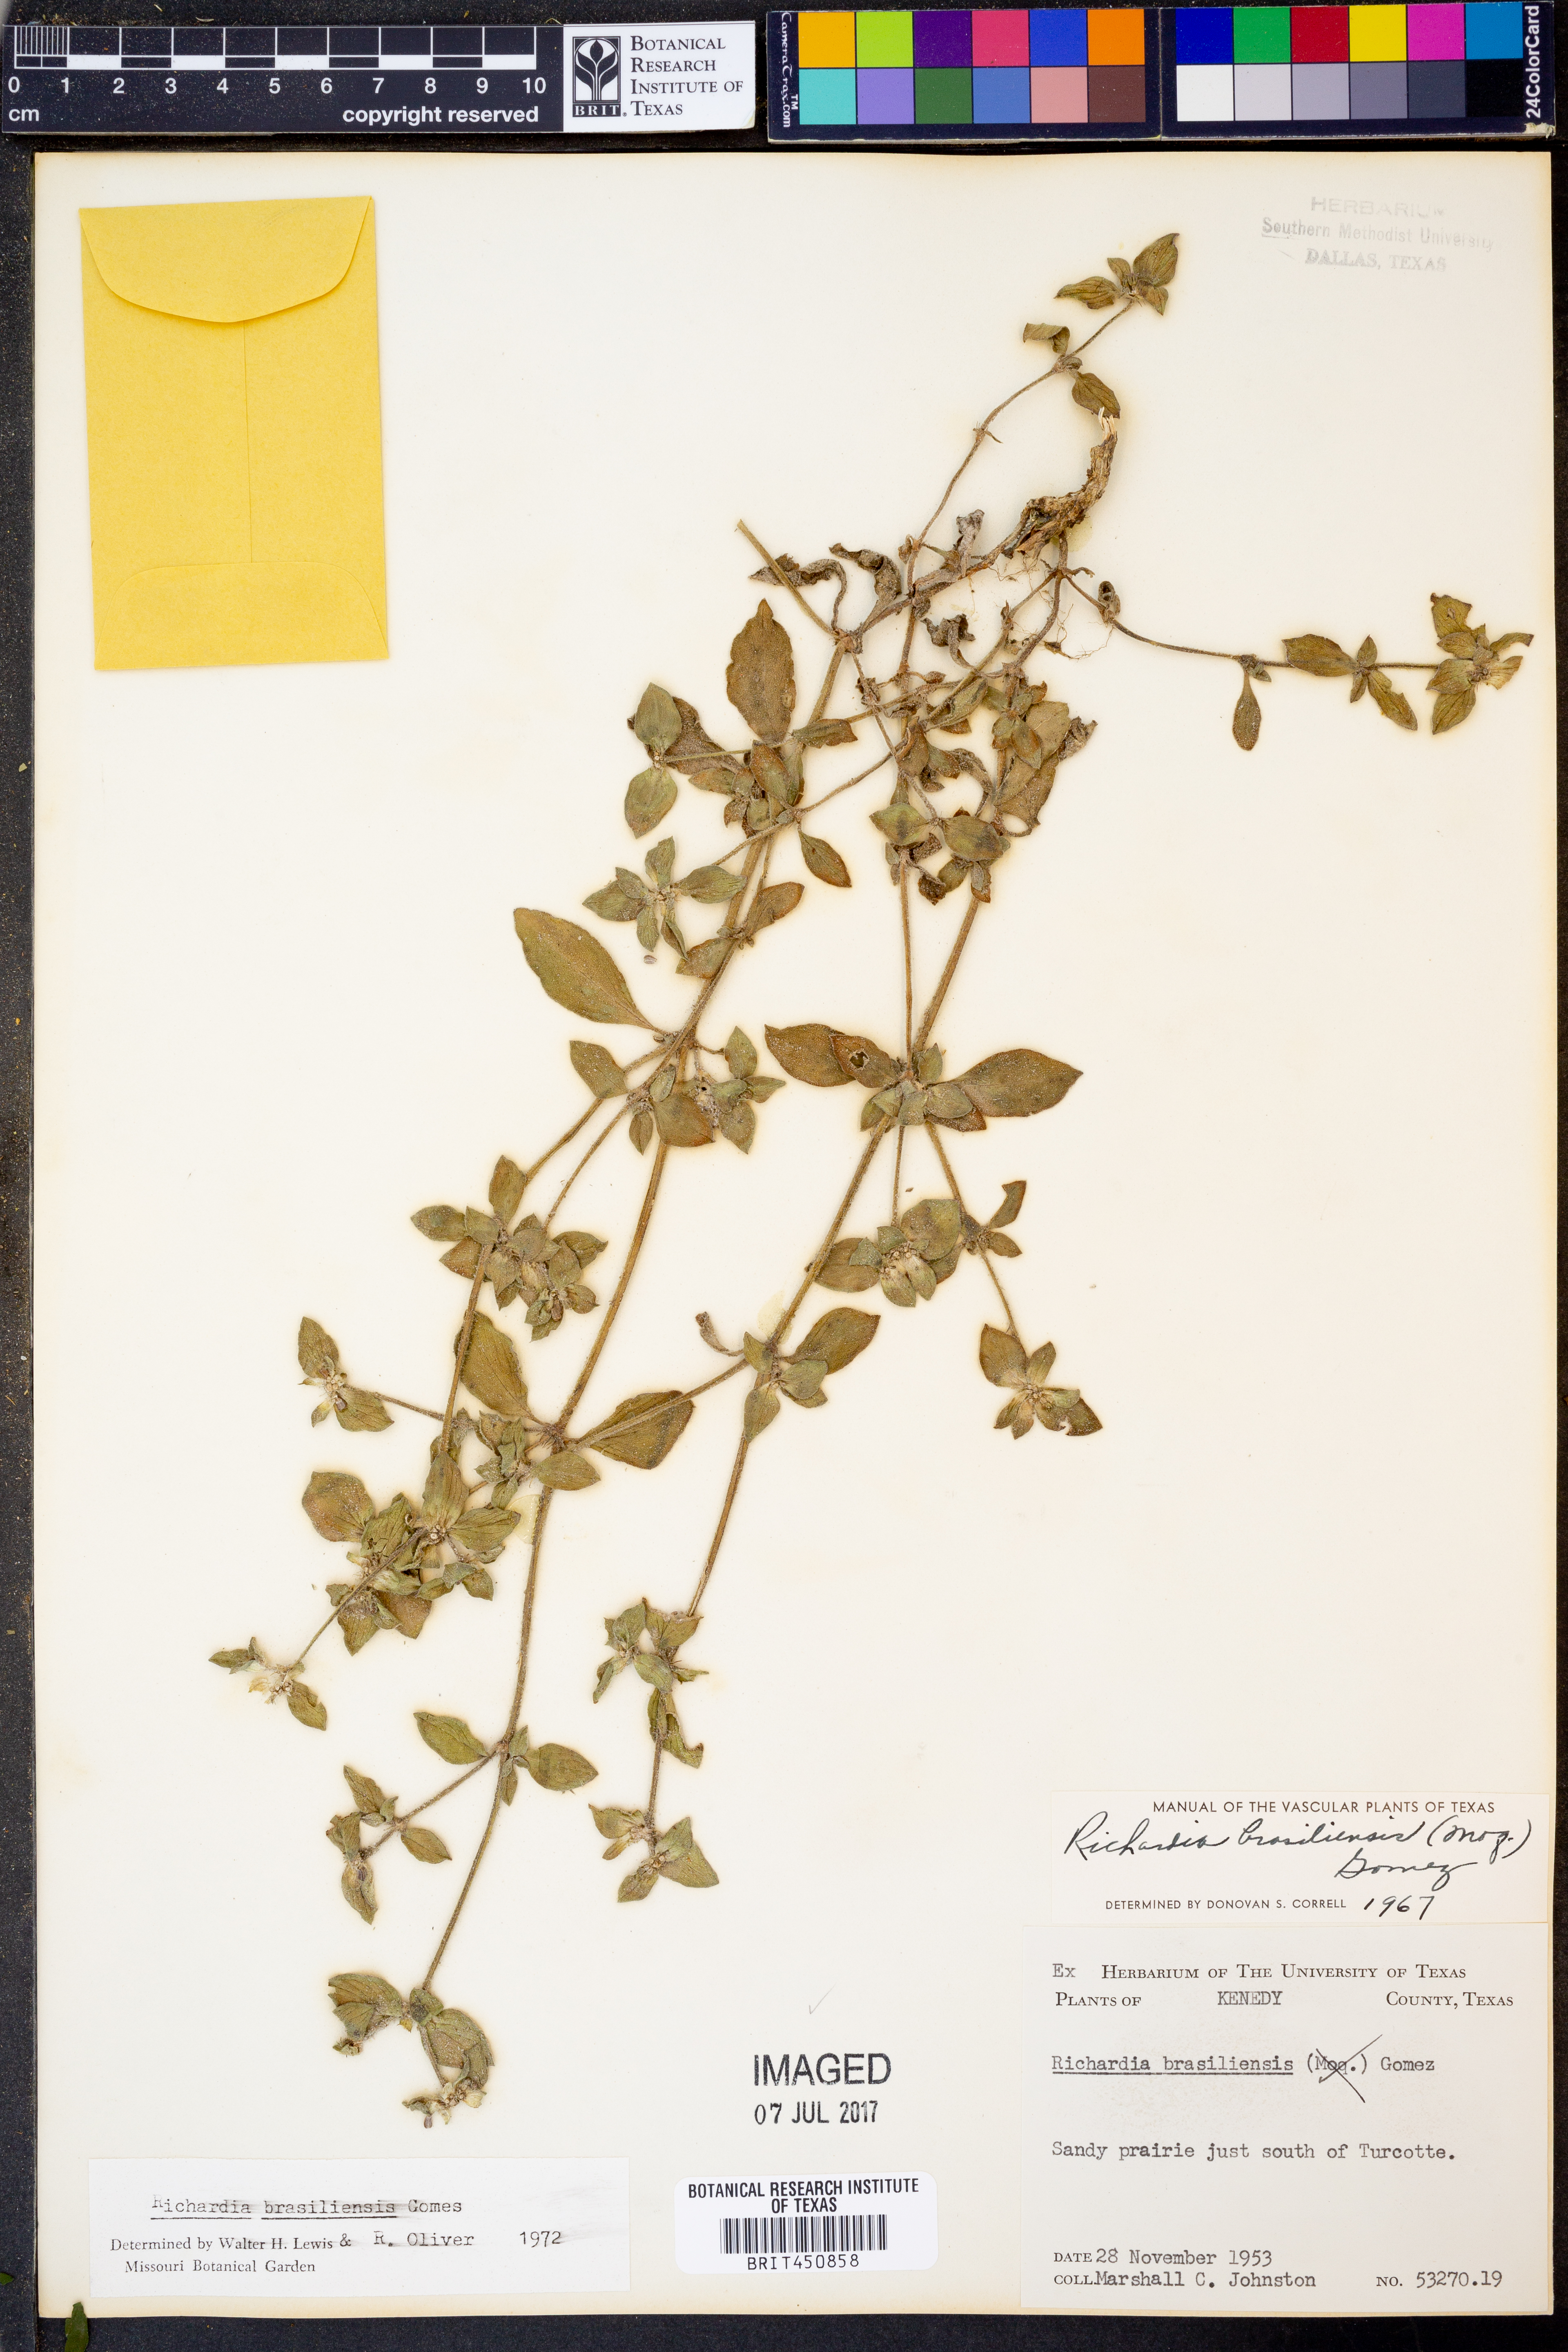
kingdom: Plantae
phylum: Tracheophyta
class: Magnoliopsida
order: Gentianales
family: Rubiaceae
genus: Richardia
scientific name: Richardia brasiliensis
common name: Tropical mexican clover
